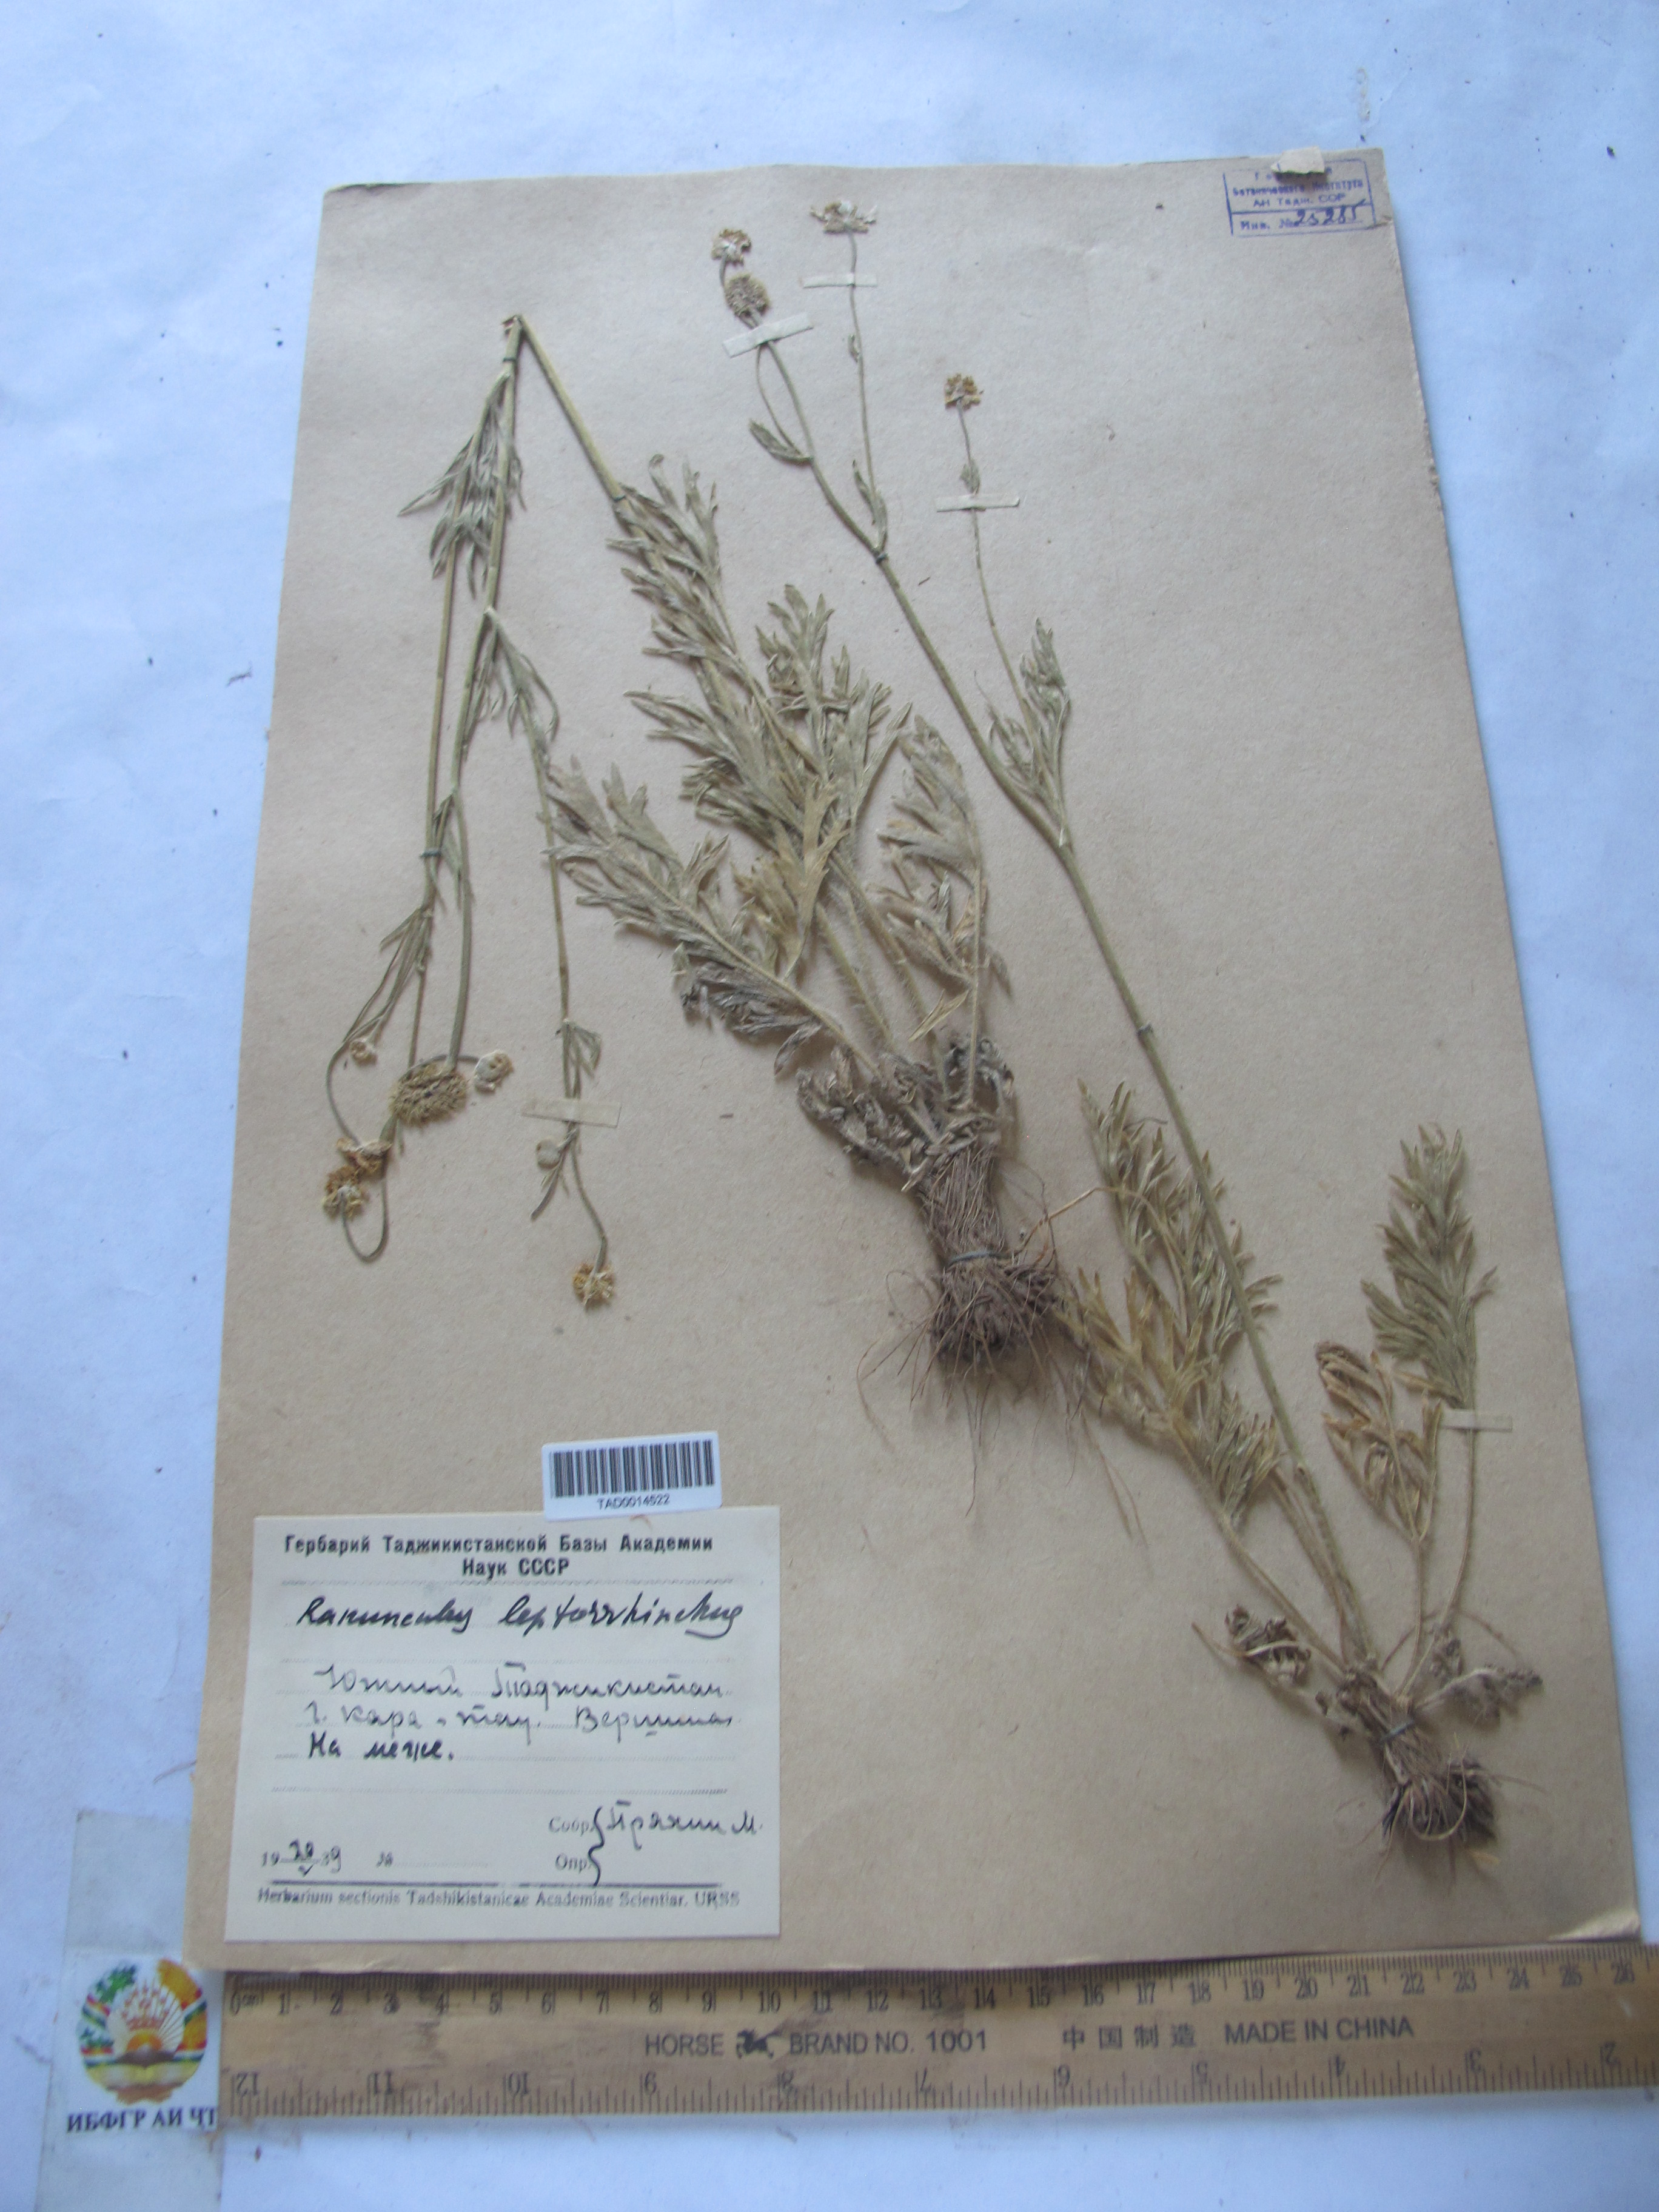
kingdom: Plantae
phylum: Tracheophyta
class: Magnoliopsida
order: Ranunculales
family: Ranunculaceae
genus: Ranunculus
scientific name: Ranunculus leptorrhynchus
